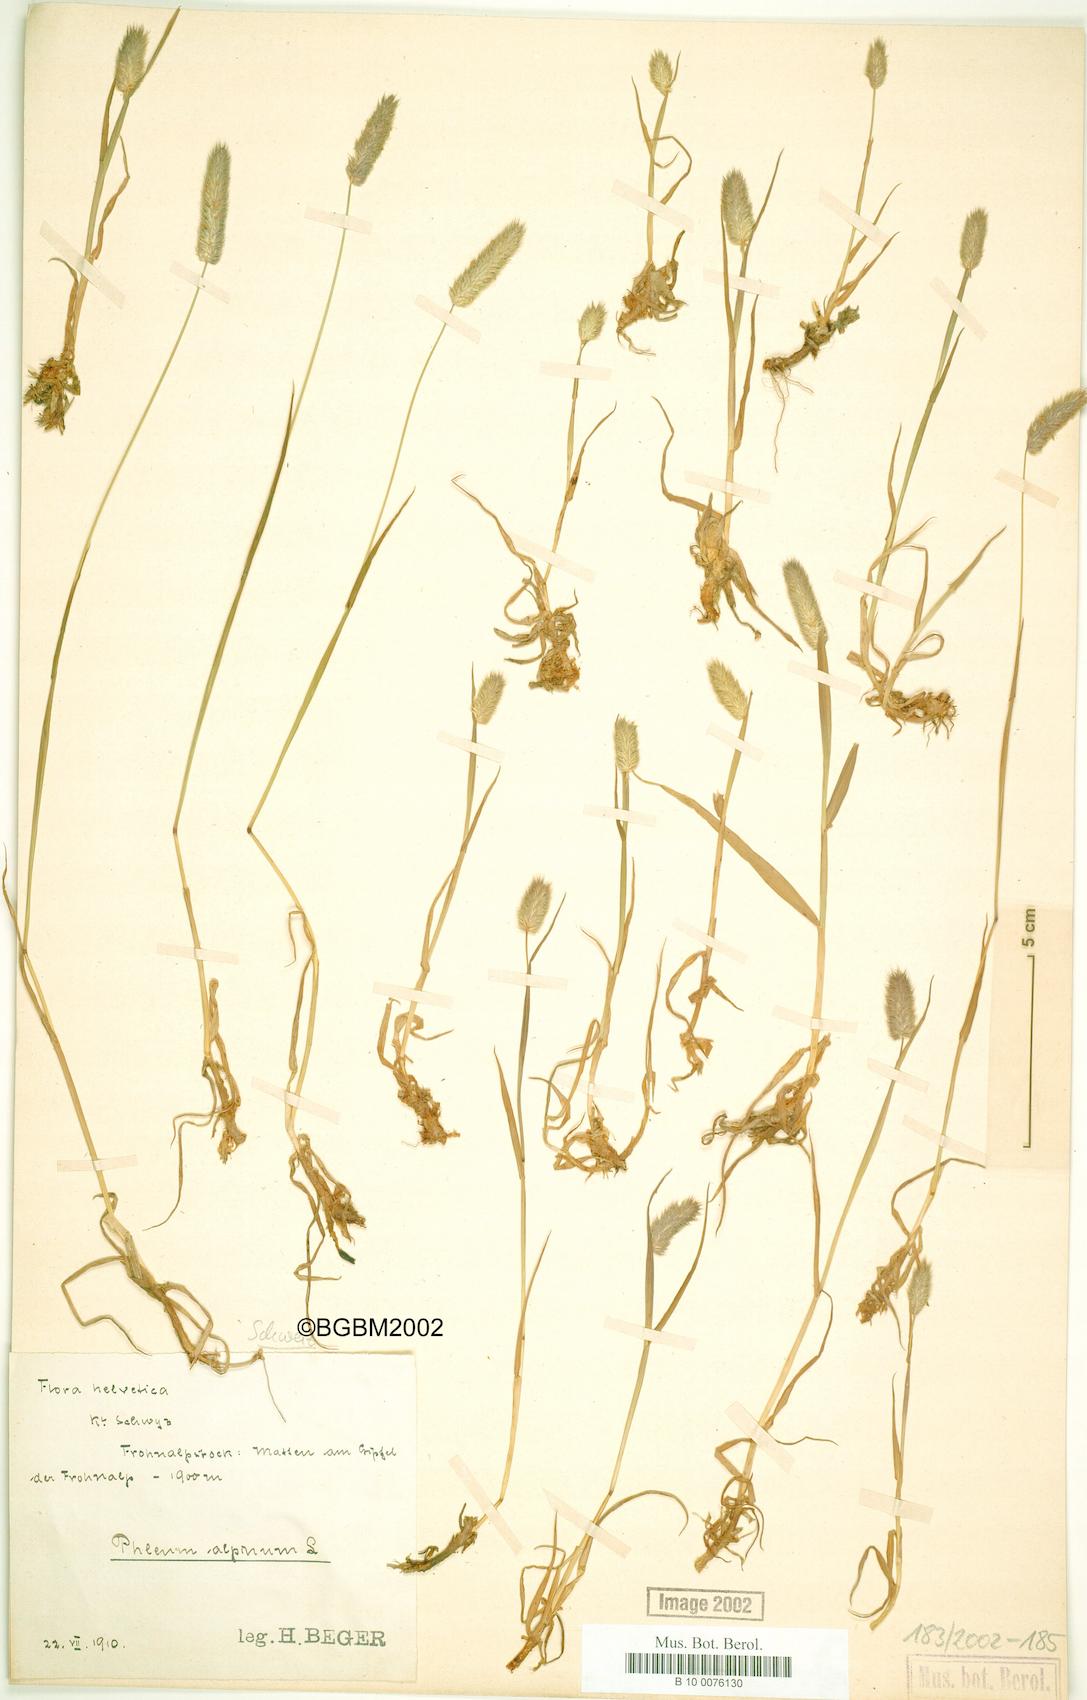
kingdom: Plantae
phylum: Tracheophyta
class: Liliopsida
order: Poales
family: Poaceae
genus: Phleum
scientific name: Phleum alpinum
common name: Alpine cat's-tail
